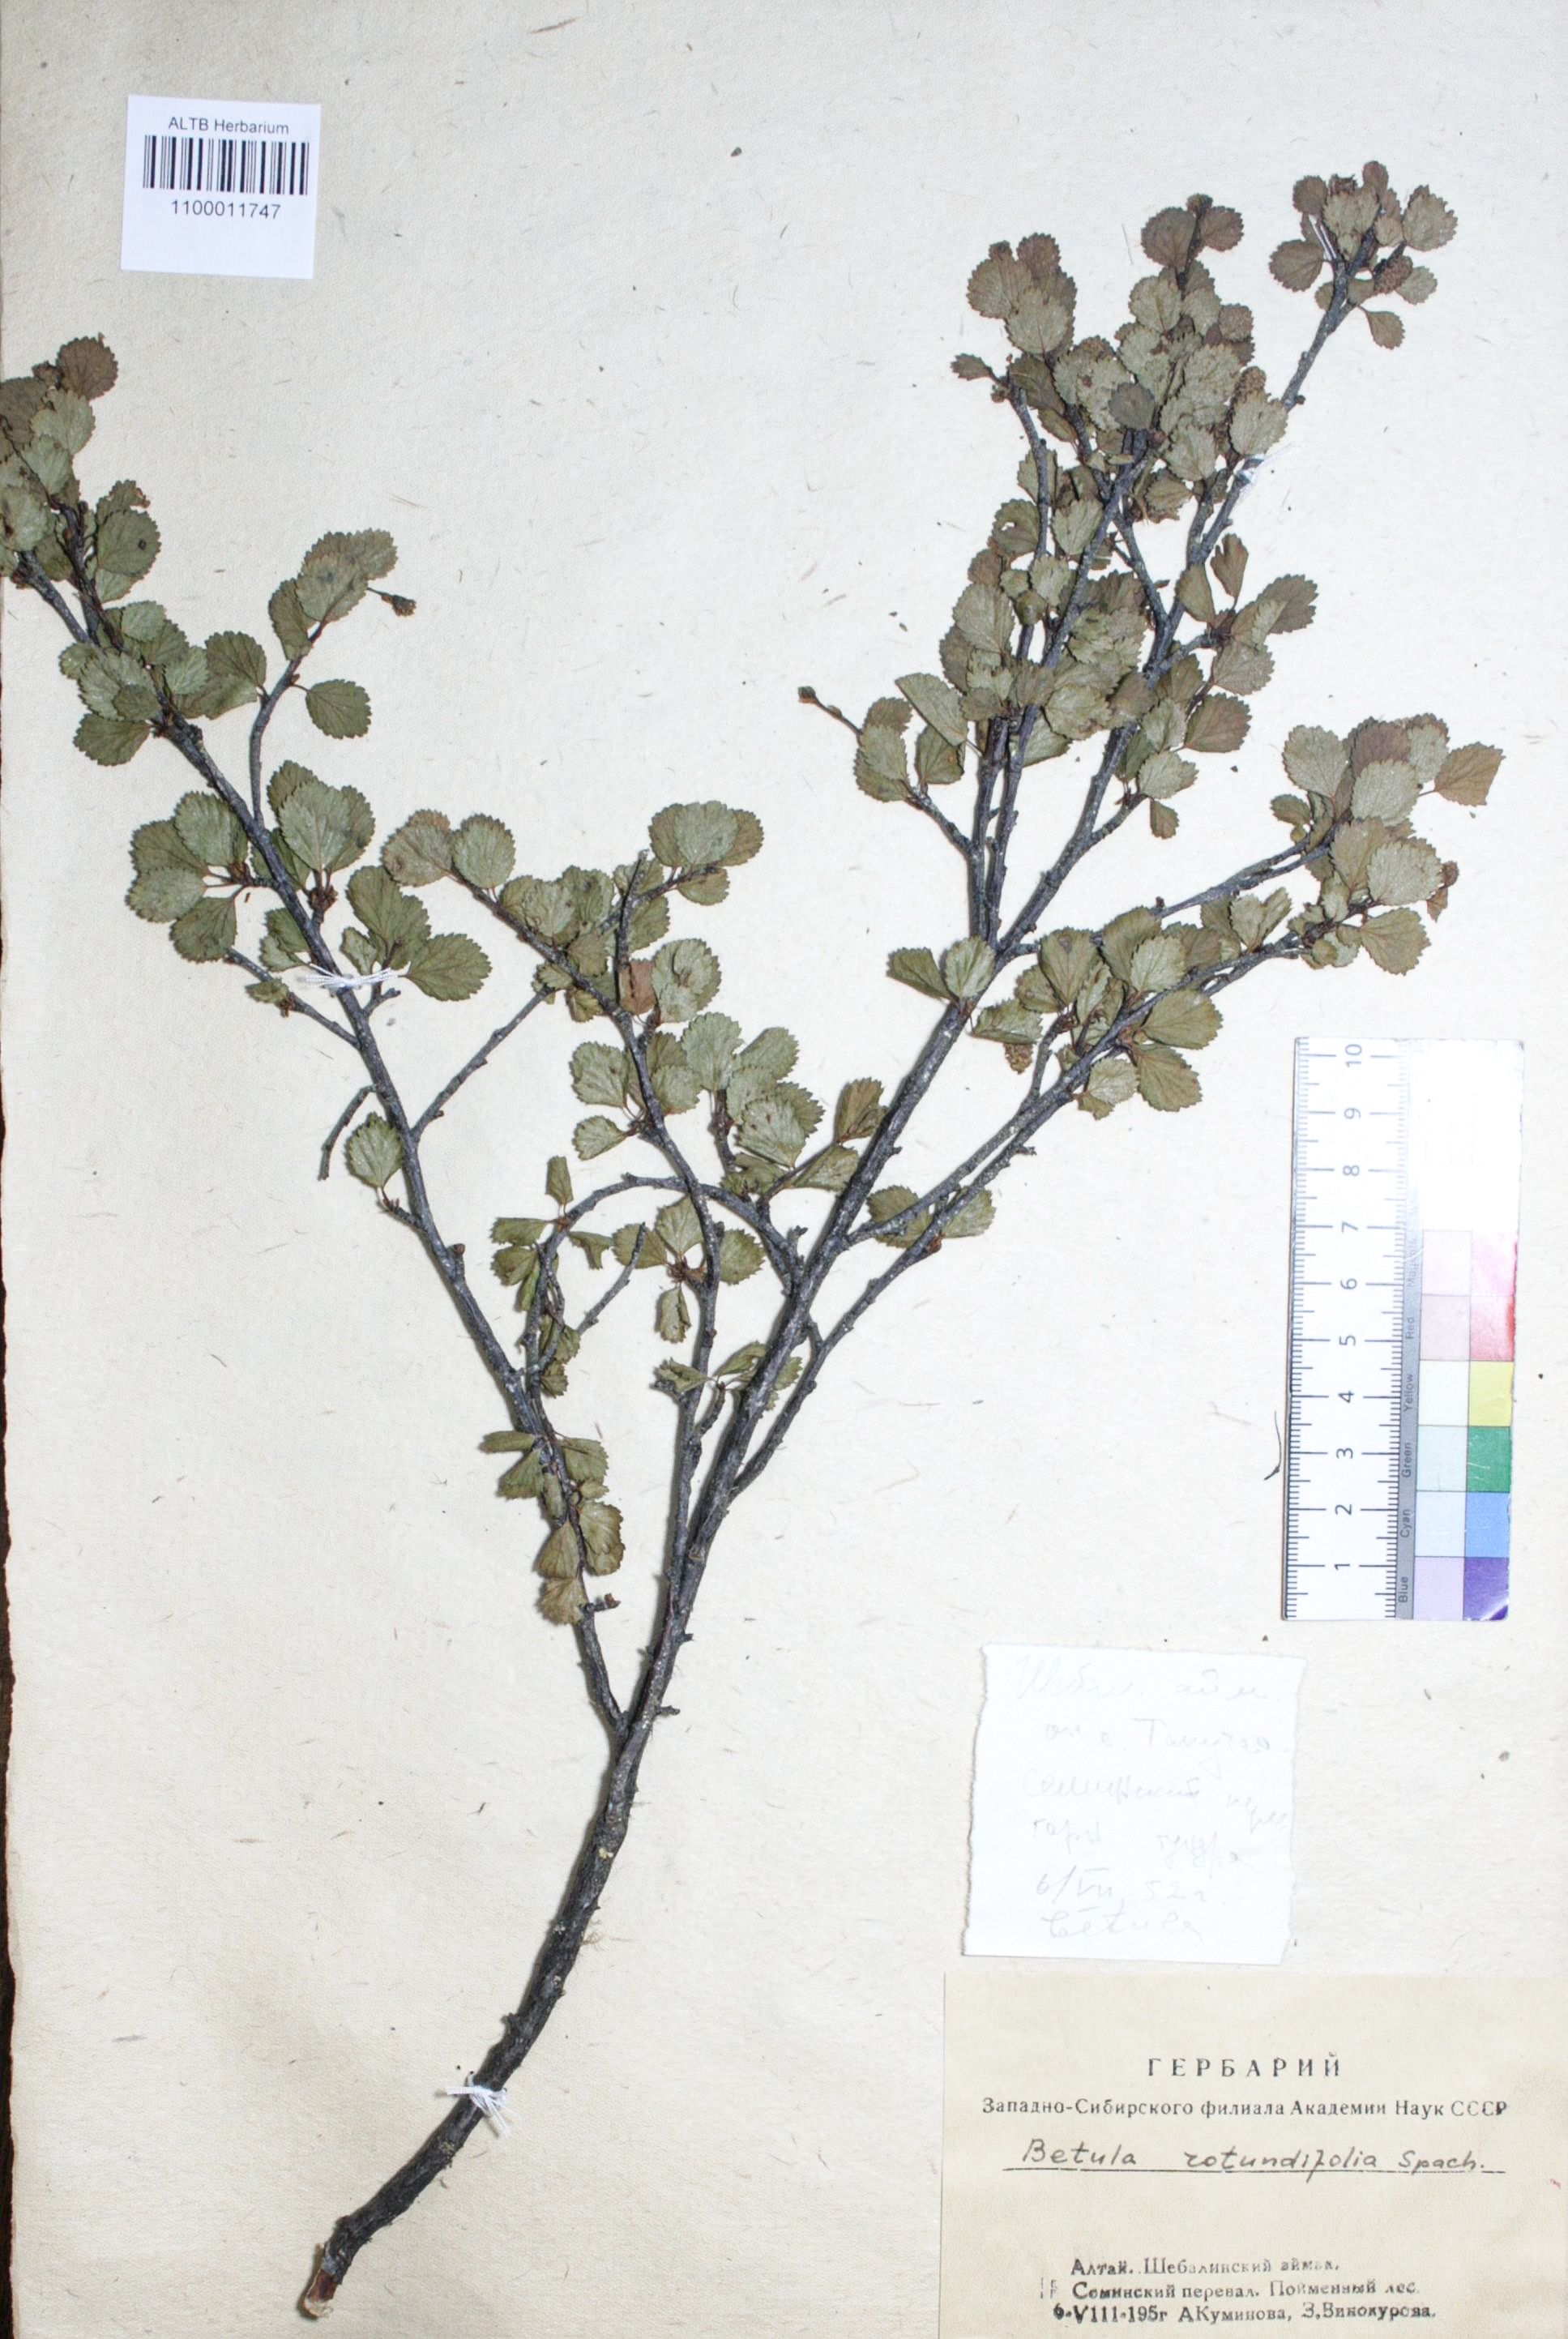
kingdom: Plantae
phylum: Tracheophyta
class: Magnoliopsida
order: Fagales
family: Betulaceae
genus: Betula
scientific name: Betula glandulosa
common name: Dwarf birch
